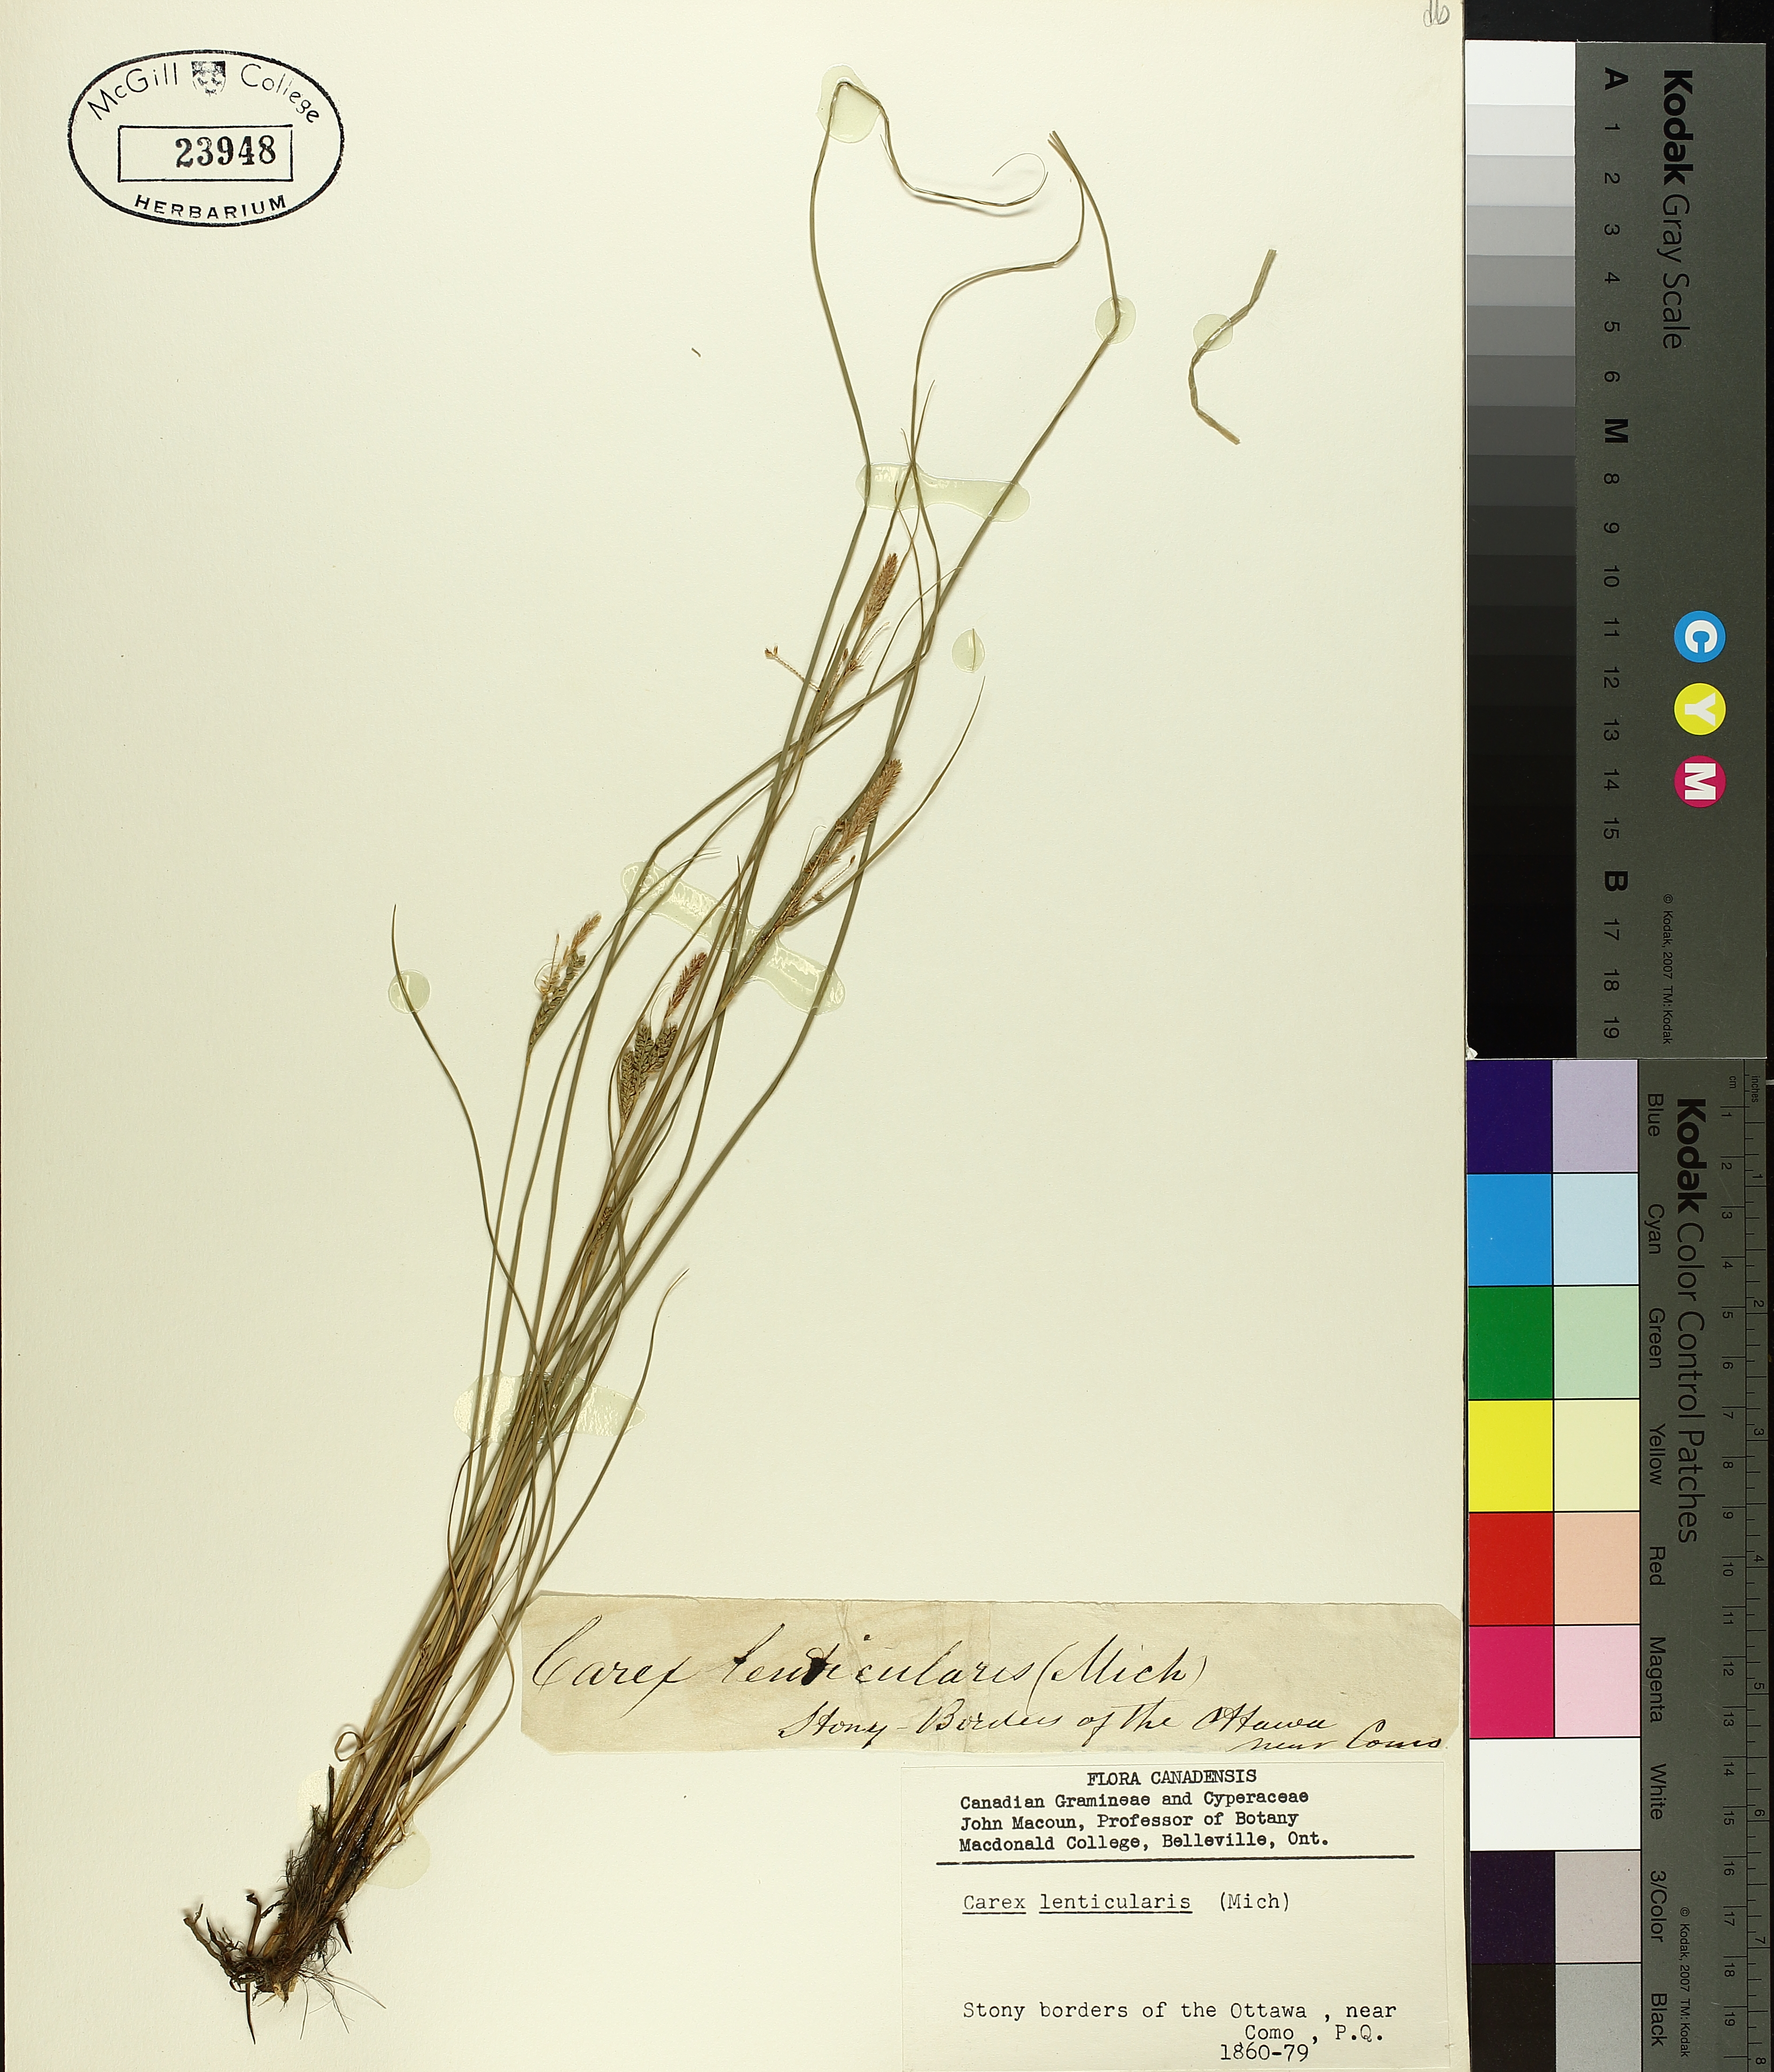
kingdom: Plantae
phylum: Tracheophyta
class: Liliopsida
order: Poales
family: Cyperaceae
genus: Carex
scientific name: Carex lenticularis
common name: Lakeshore sedge
